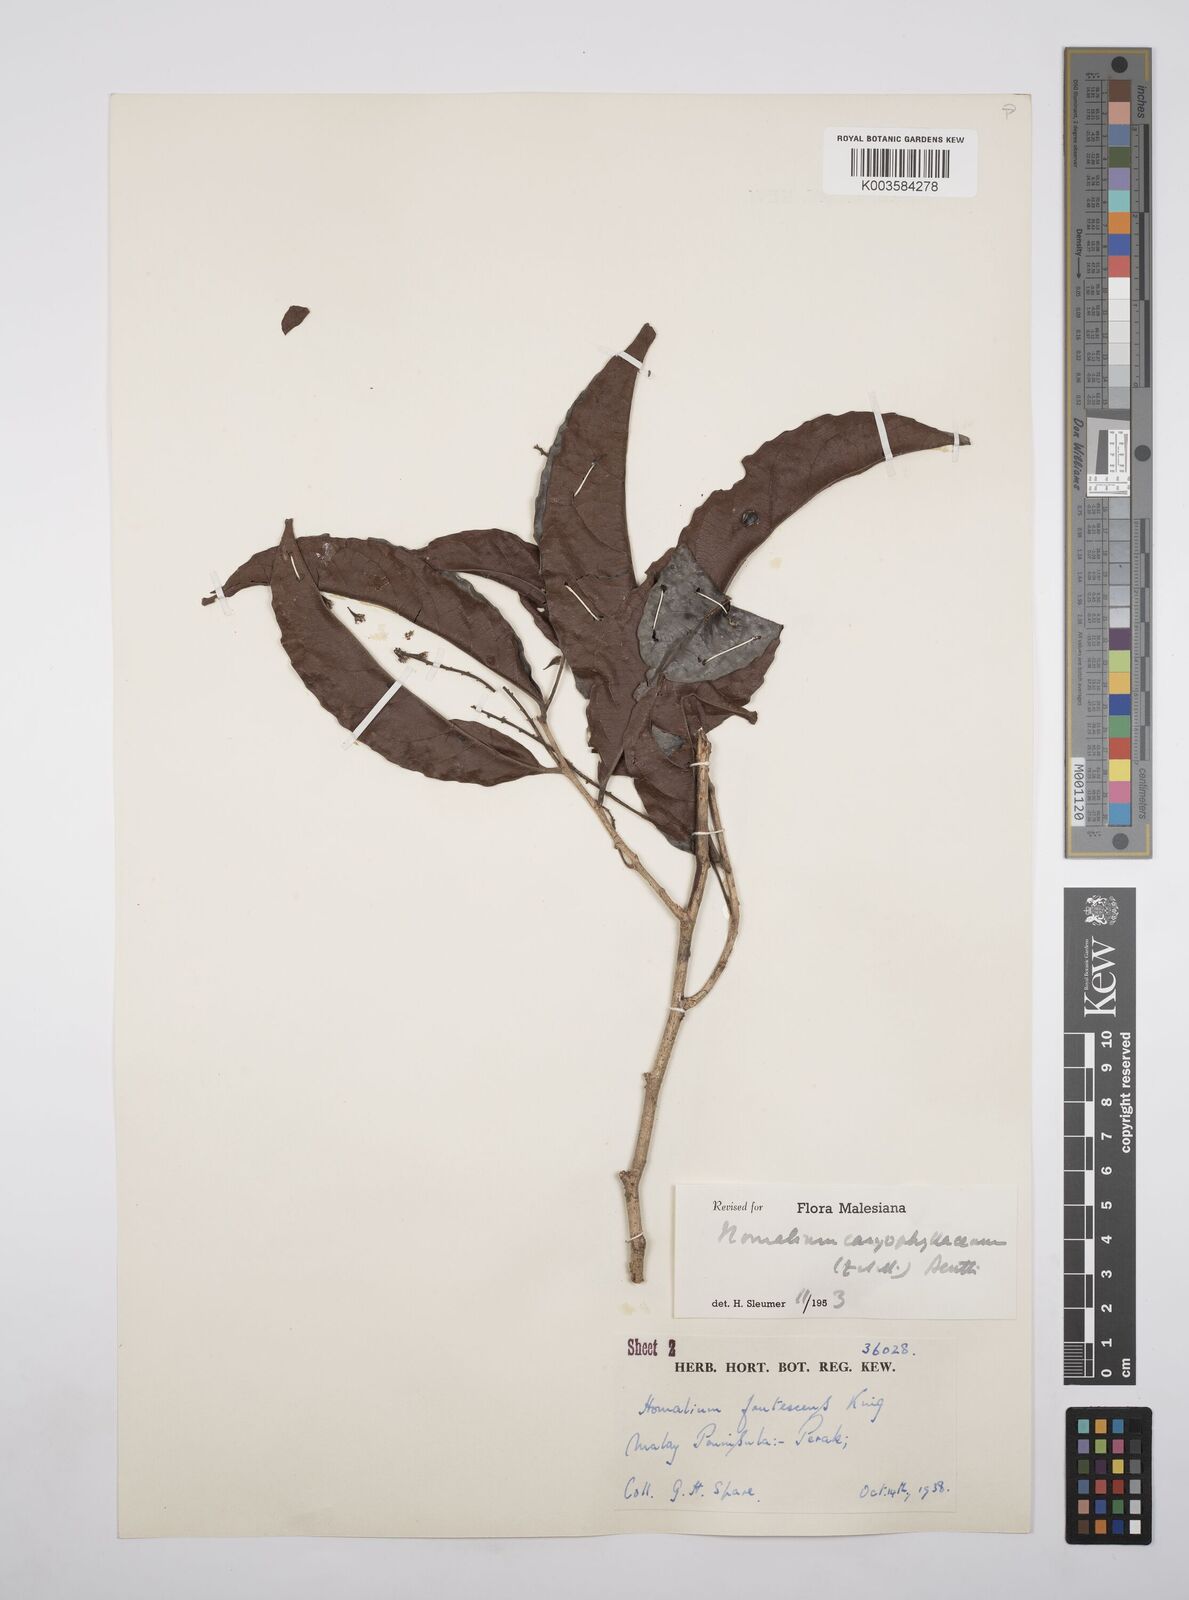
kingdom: Plantae
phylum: Tracheophyta
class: Magnoliopsida
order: Malpighiales
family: Salicaceae
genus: Homalium
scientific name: Homalium caryophyllaceum
